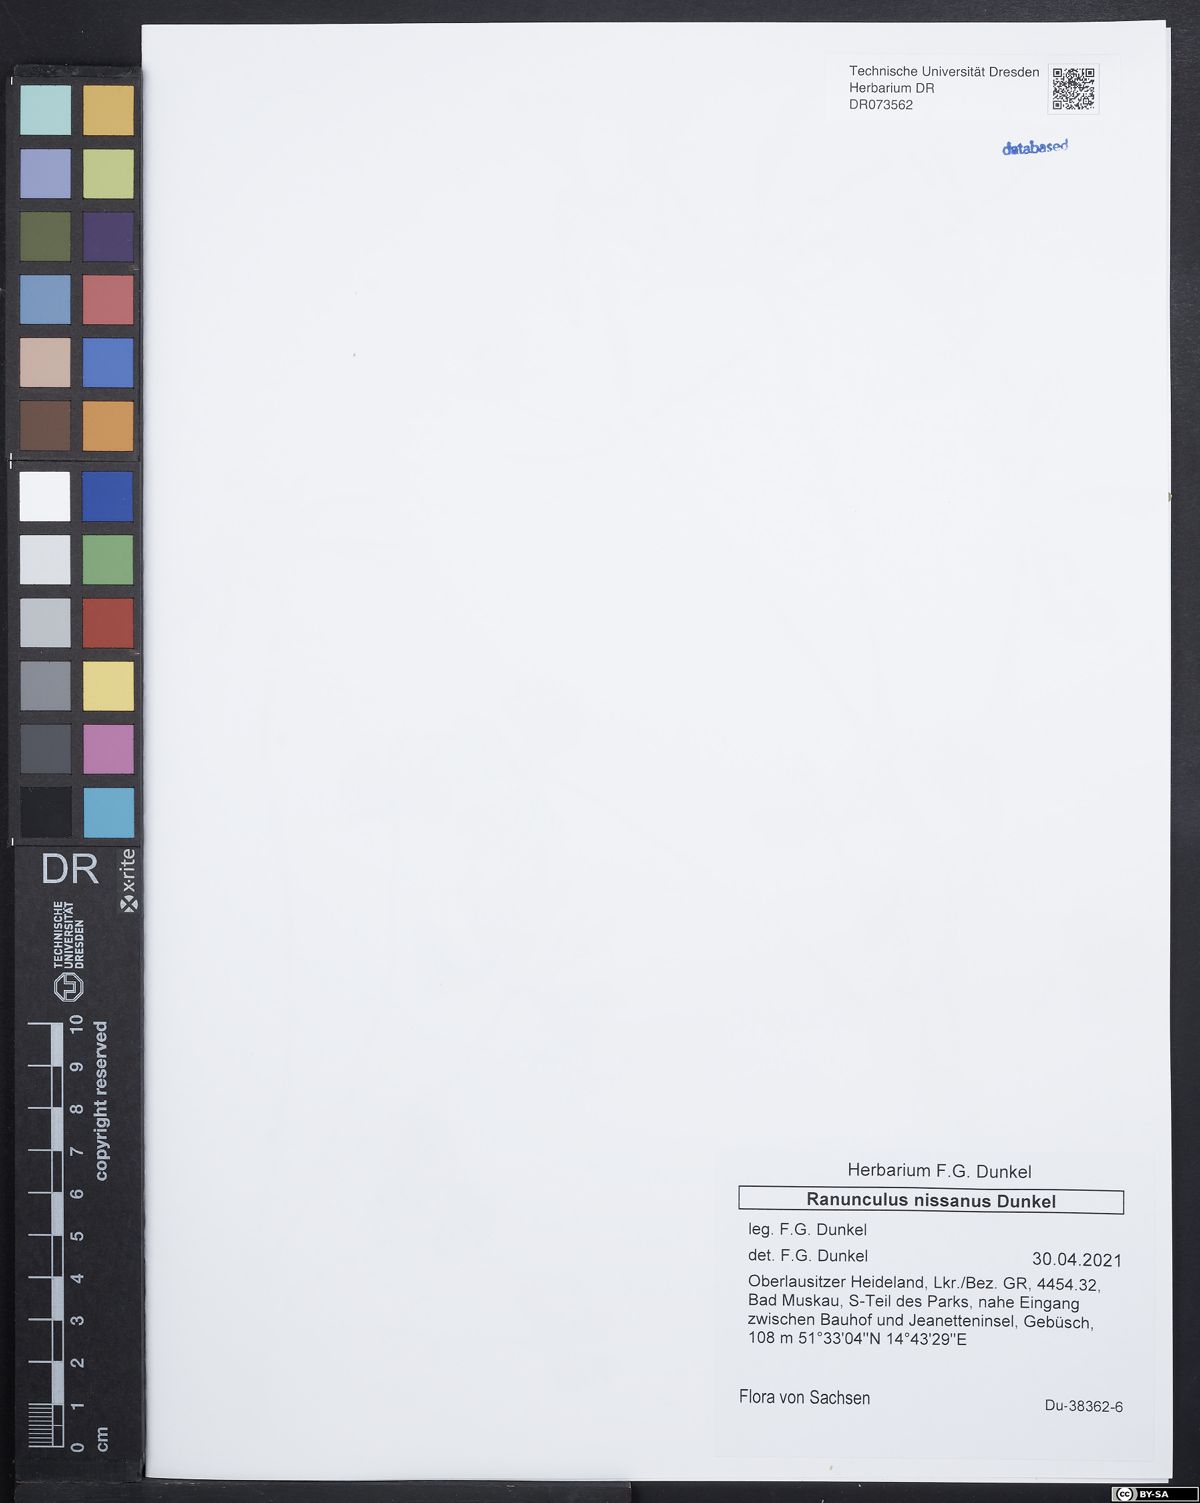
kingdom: Plantae
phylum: Tracheophyta
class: Magnoliopsida
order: Ranunculales
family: Ranunculaceae
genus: Ranunculus
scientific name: Ranunculus psilostachys
